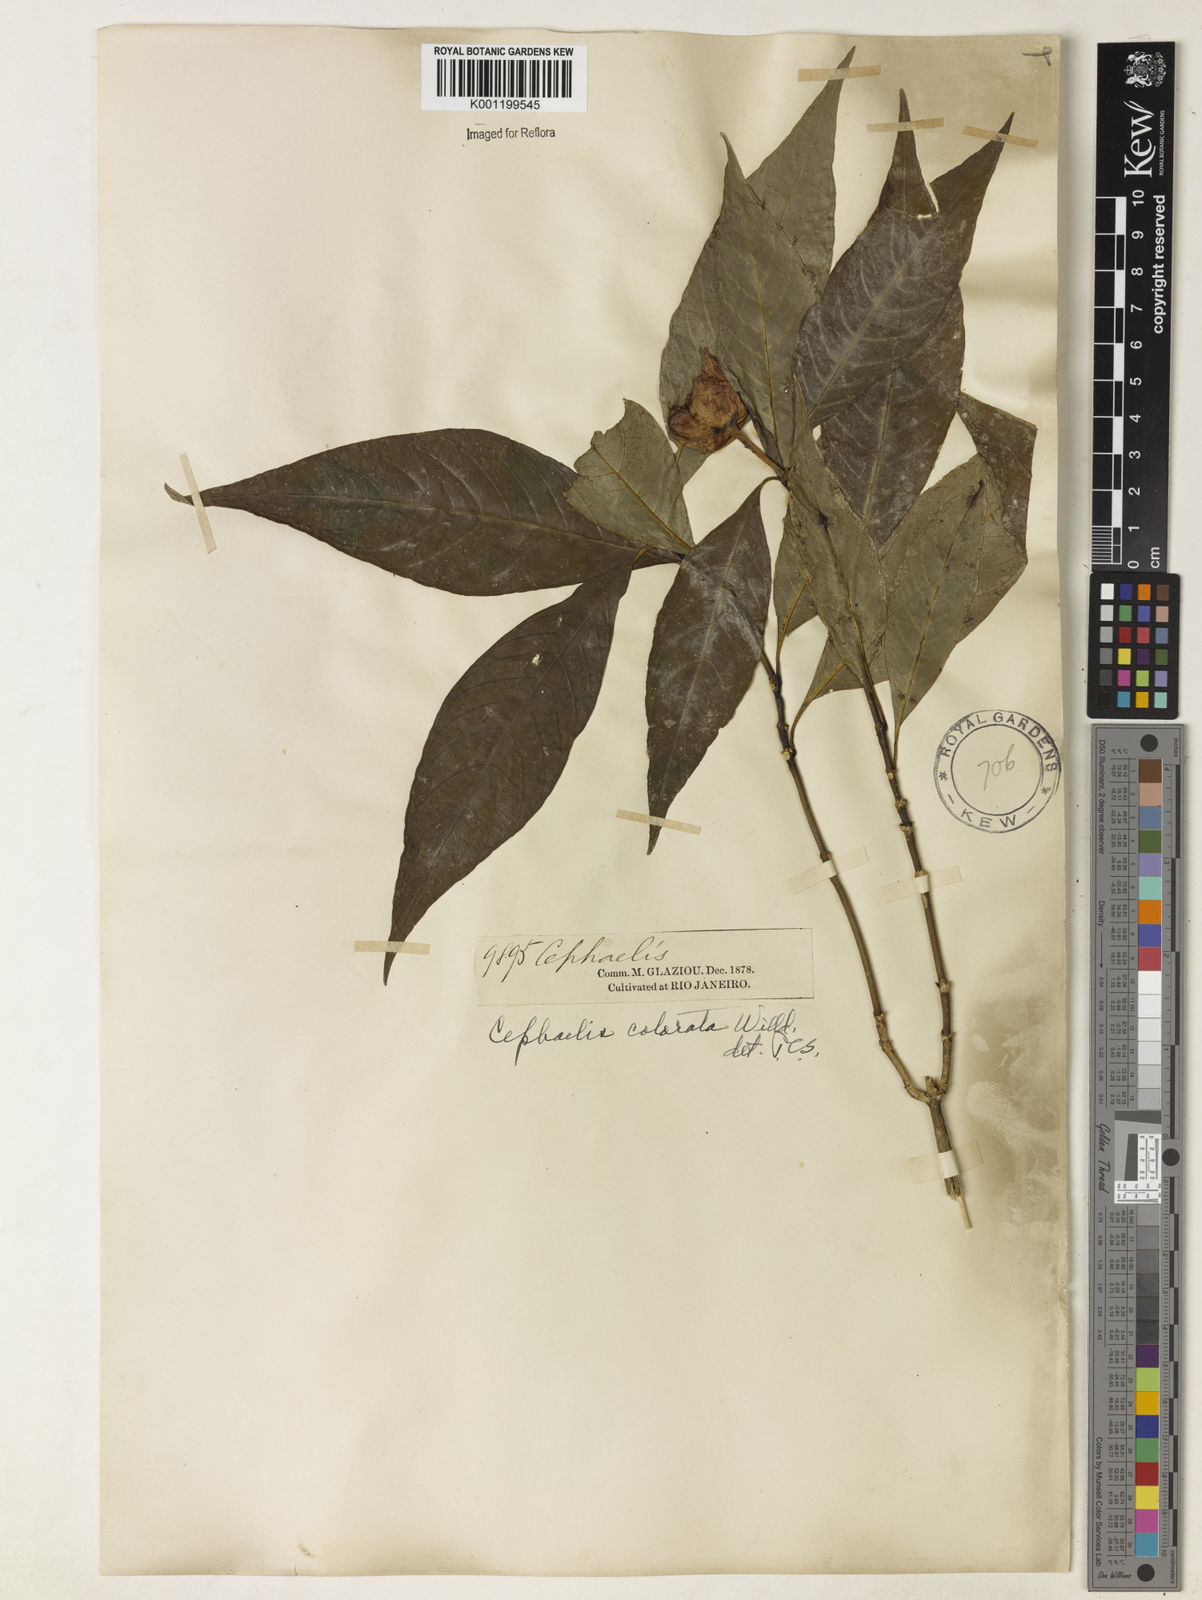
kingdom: Plantae
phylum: Tracheophyta
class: Magnoliopsida
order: Gentianales
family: Rubiaceae
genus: Psychotria
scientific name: Psychotria
